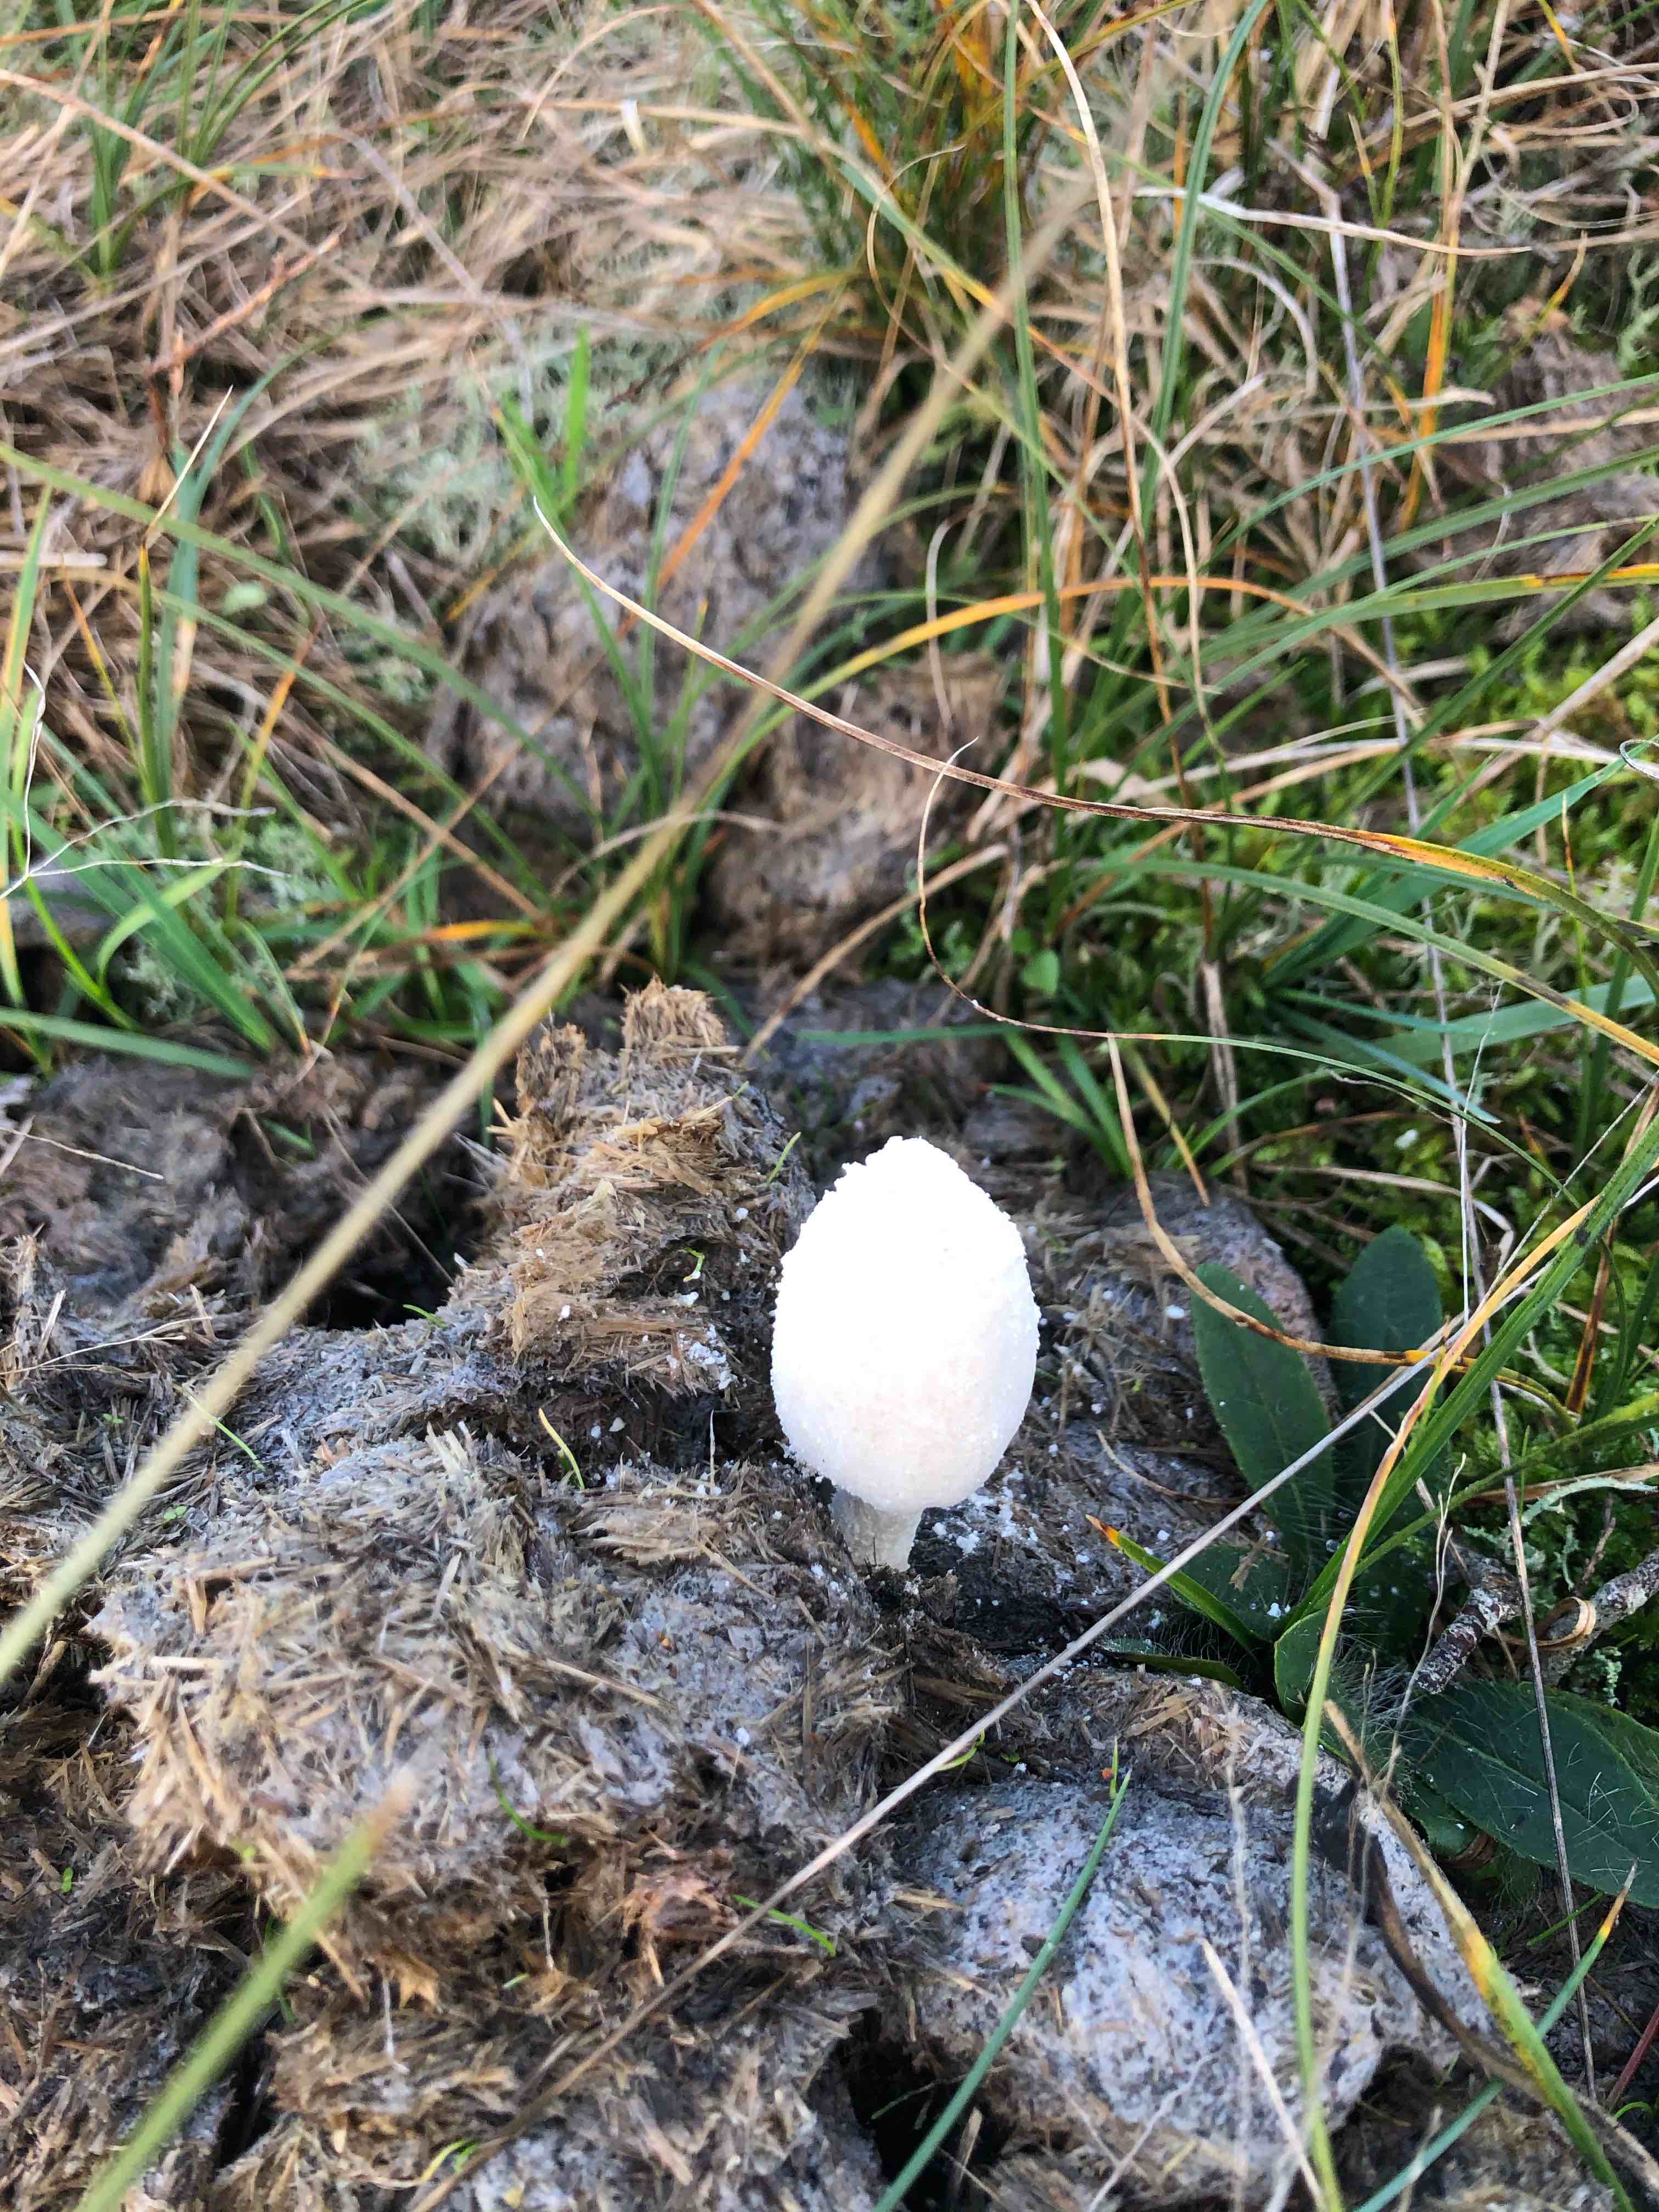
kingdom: Fungi
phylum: Basidiomycota
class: Agaricomycetes
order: Agaricales
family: Psathyrellaceae
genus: Coprinopsis
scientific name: Coprinopsis nivea
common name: snehvid blækhat
